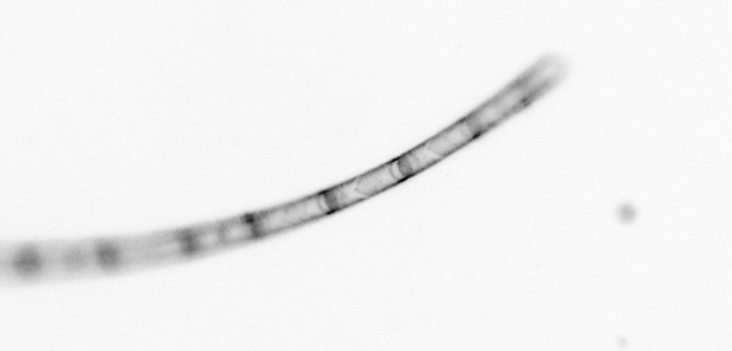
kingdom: Chromista
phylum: Ochrophyta
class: Bacillariophyceae
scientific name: Bacillariophyceae
